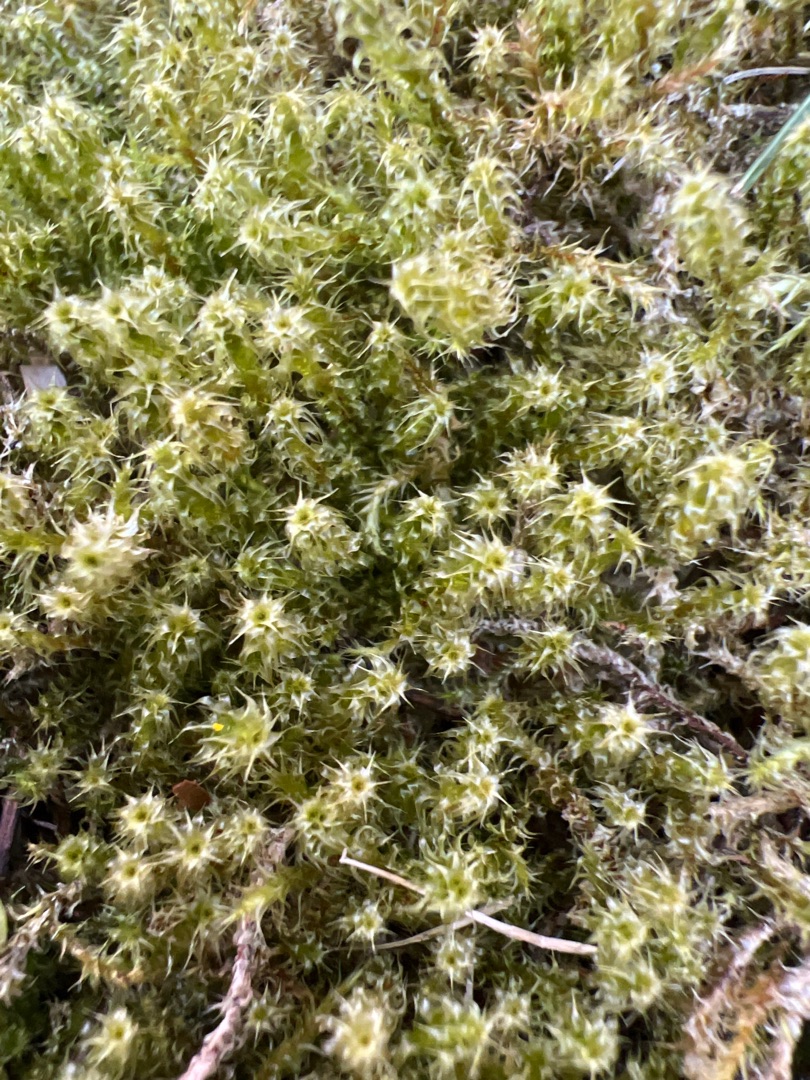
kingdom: Plantae
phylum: Bryophyta
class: Bryopsida
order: Hypnales
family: Hylocomiaceae
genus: Rhytidiadelphus
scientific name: Rhytidiadelphus squarrosus
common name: Plæne-kransemos
